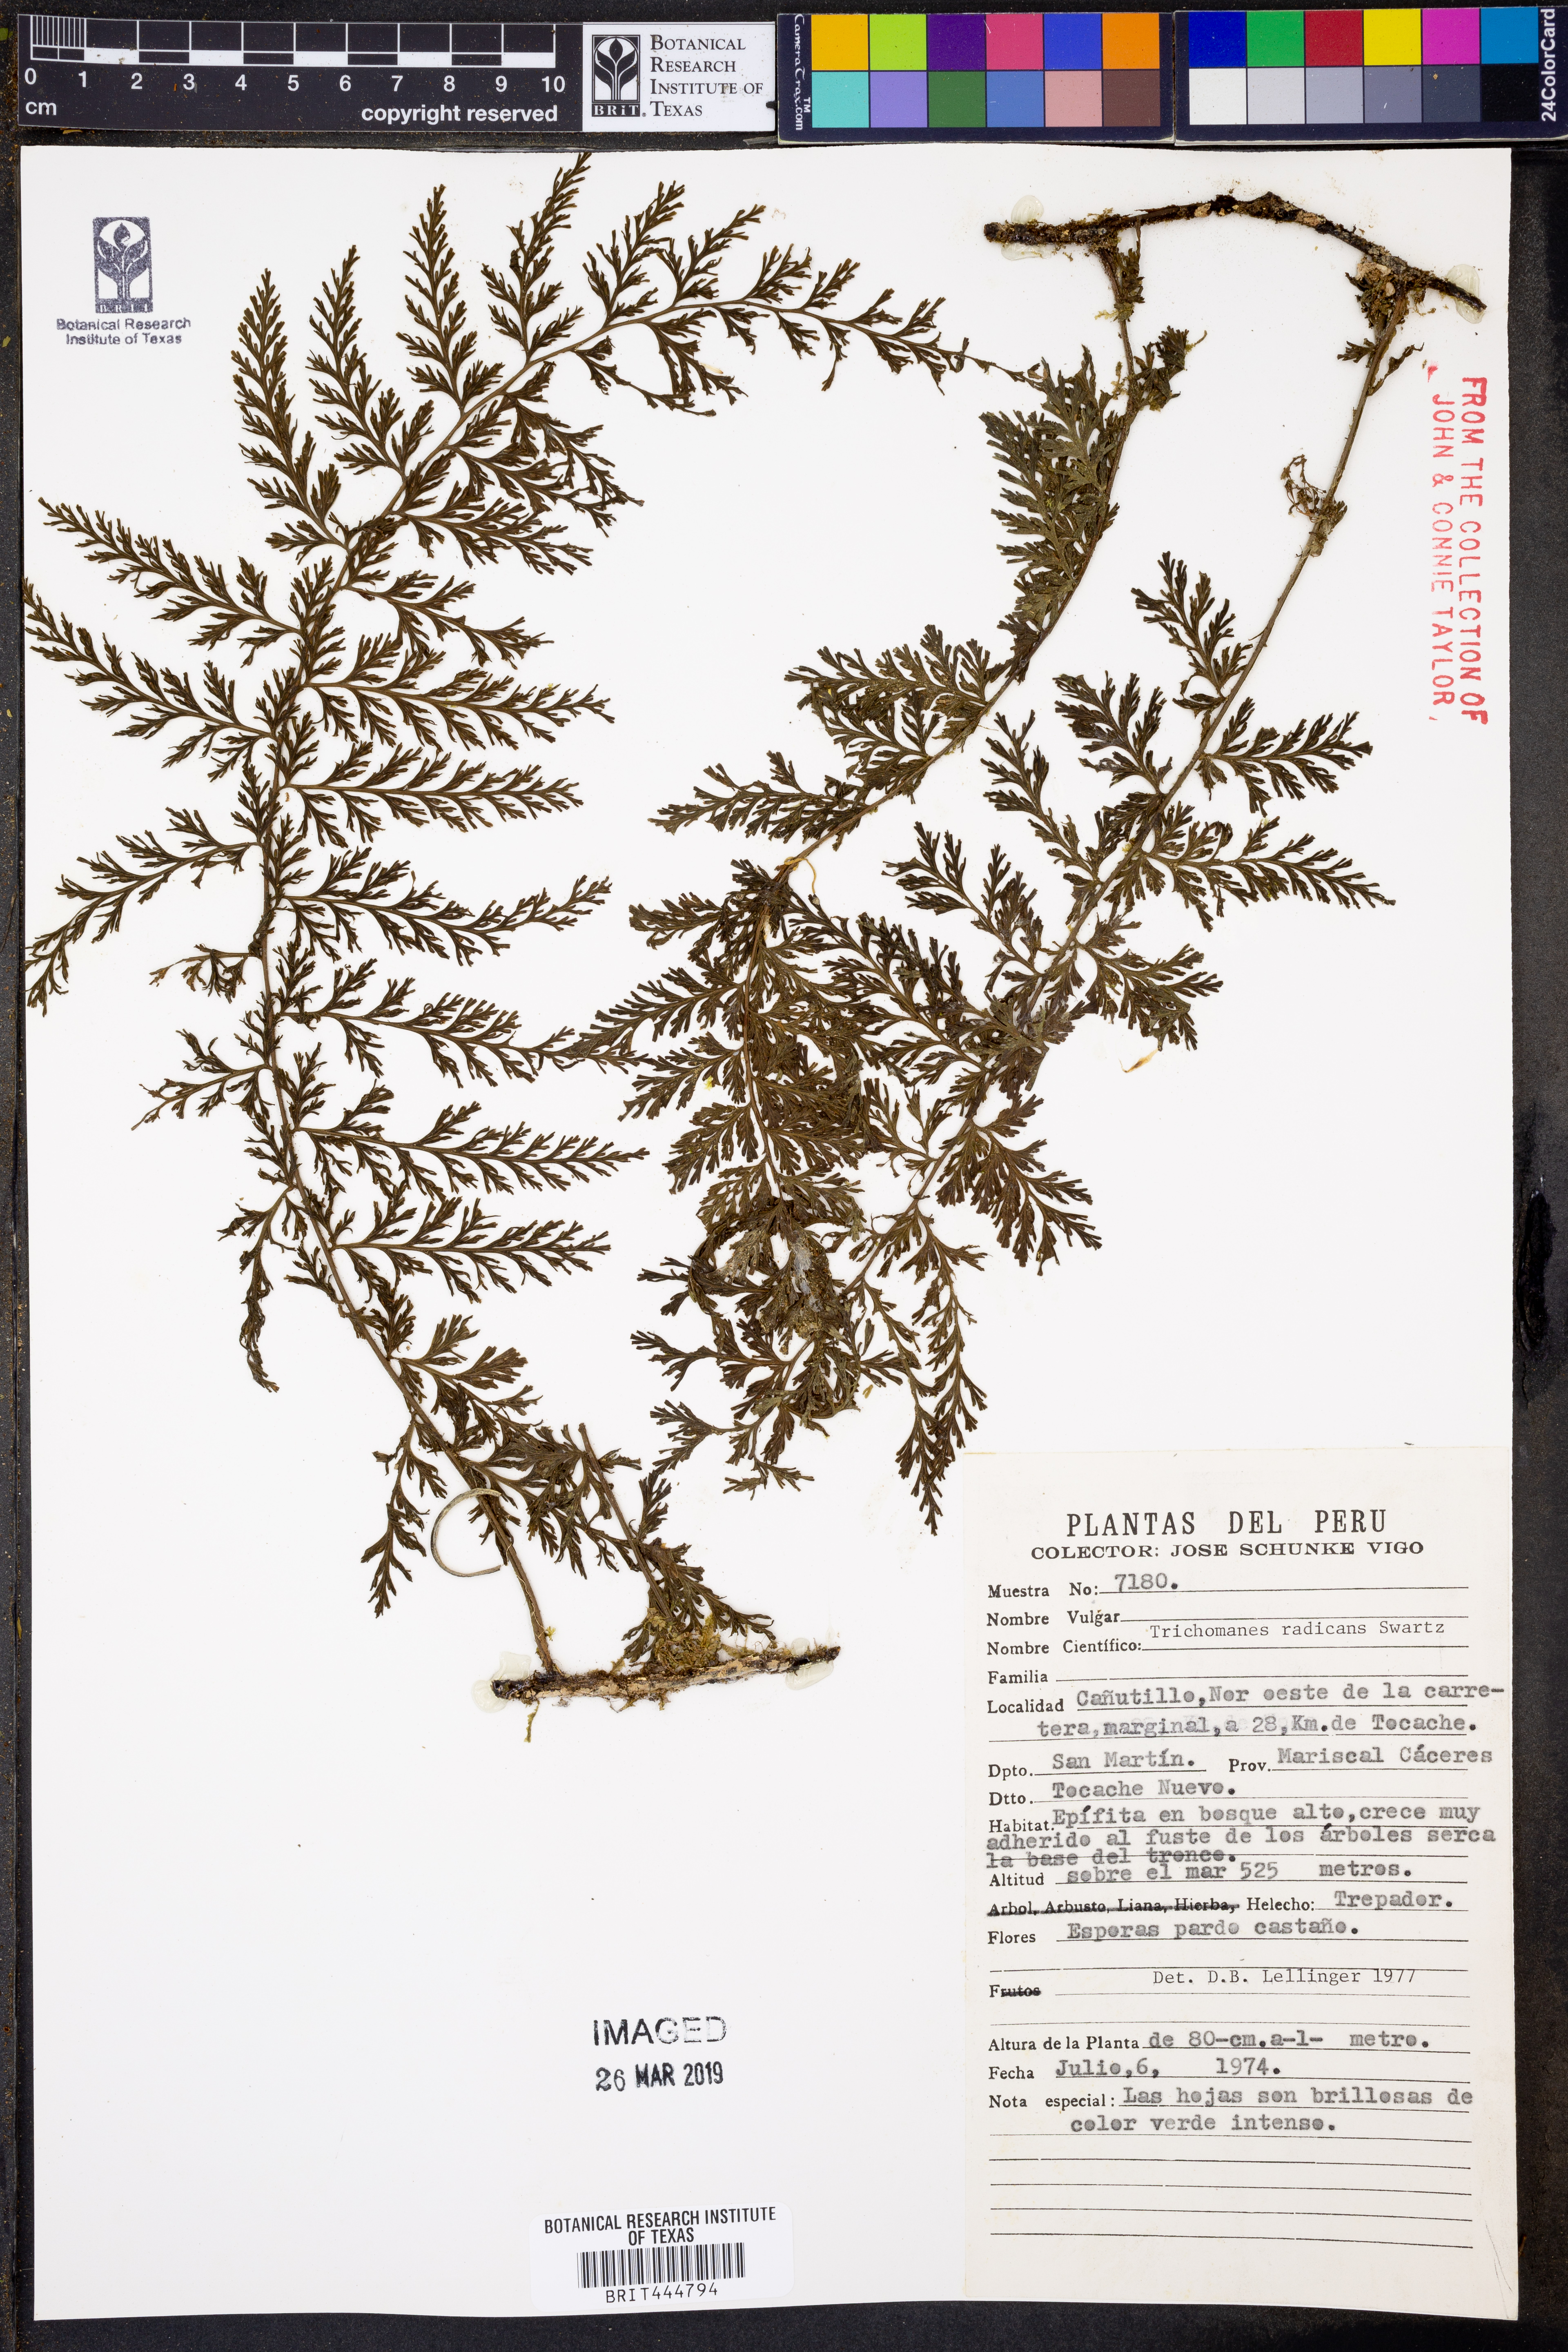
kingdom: Plantae
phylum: Tracheophyta
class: Polypodiopsida
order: Hymenophyllales
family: Hymenophyllaceae
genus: Vandenboschia
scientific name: Vandenboschia radicans
